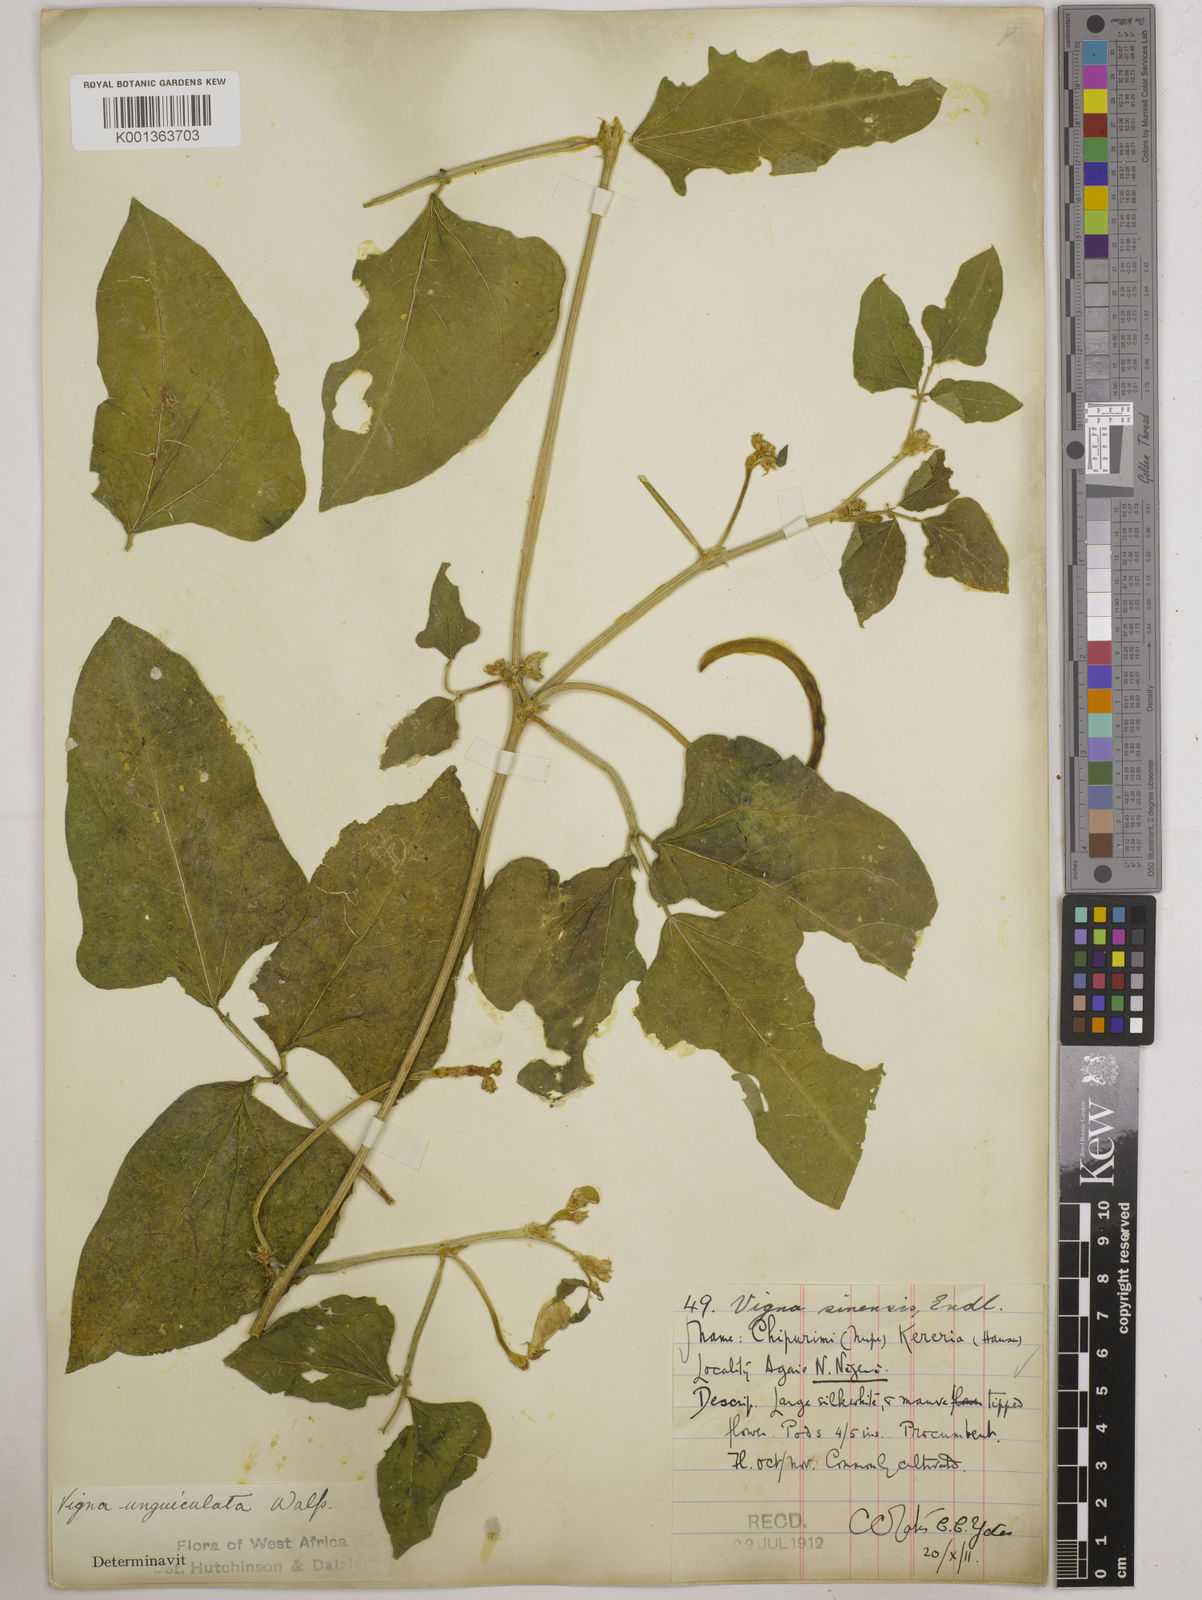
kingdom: Plantae
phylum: Tracheophyta
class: Magnoliopsida
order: Fabales
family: Fabaceae
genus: Vigna
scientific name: Vigna unguiculata
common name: Cowpea
